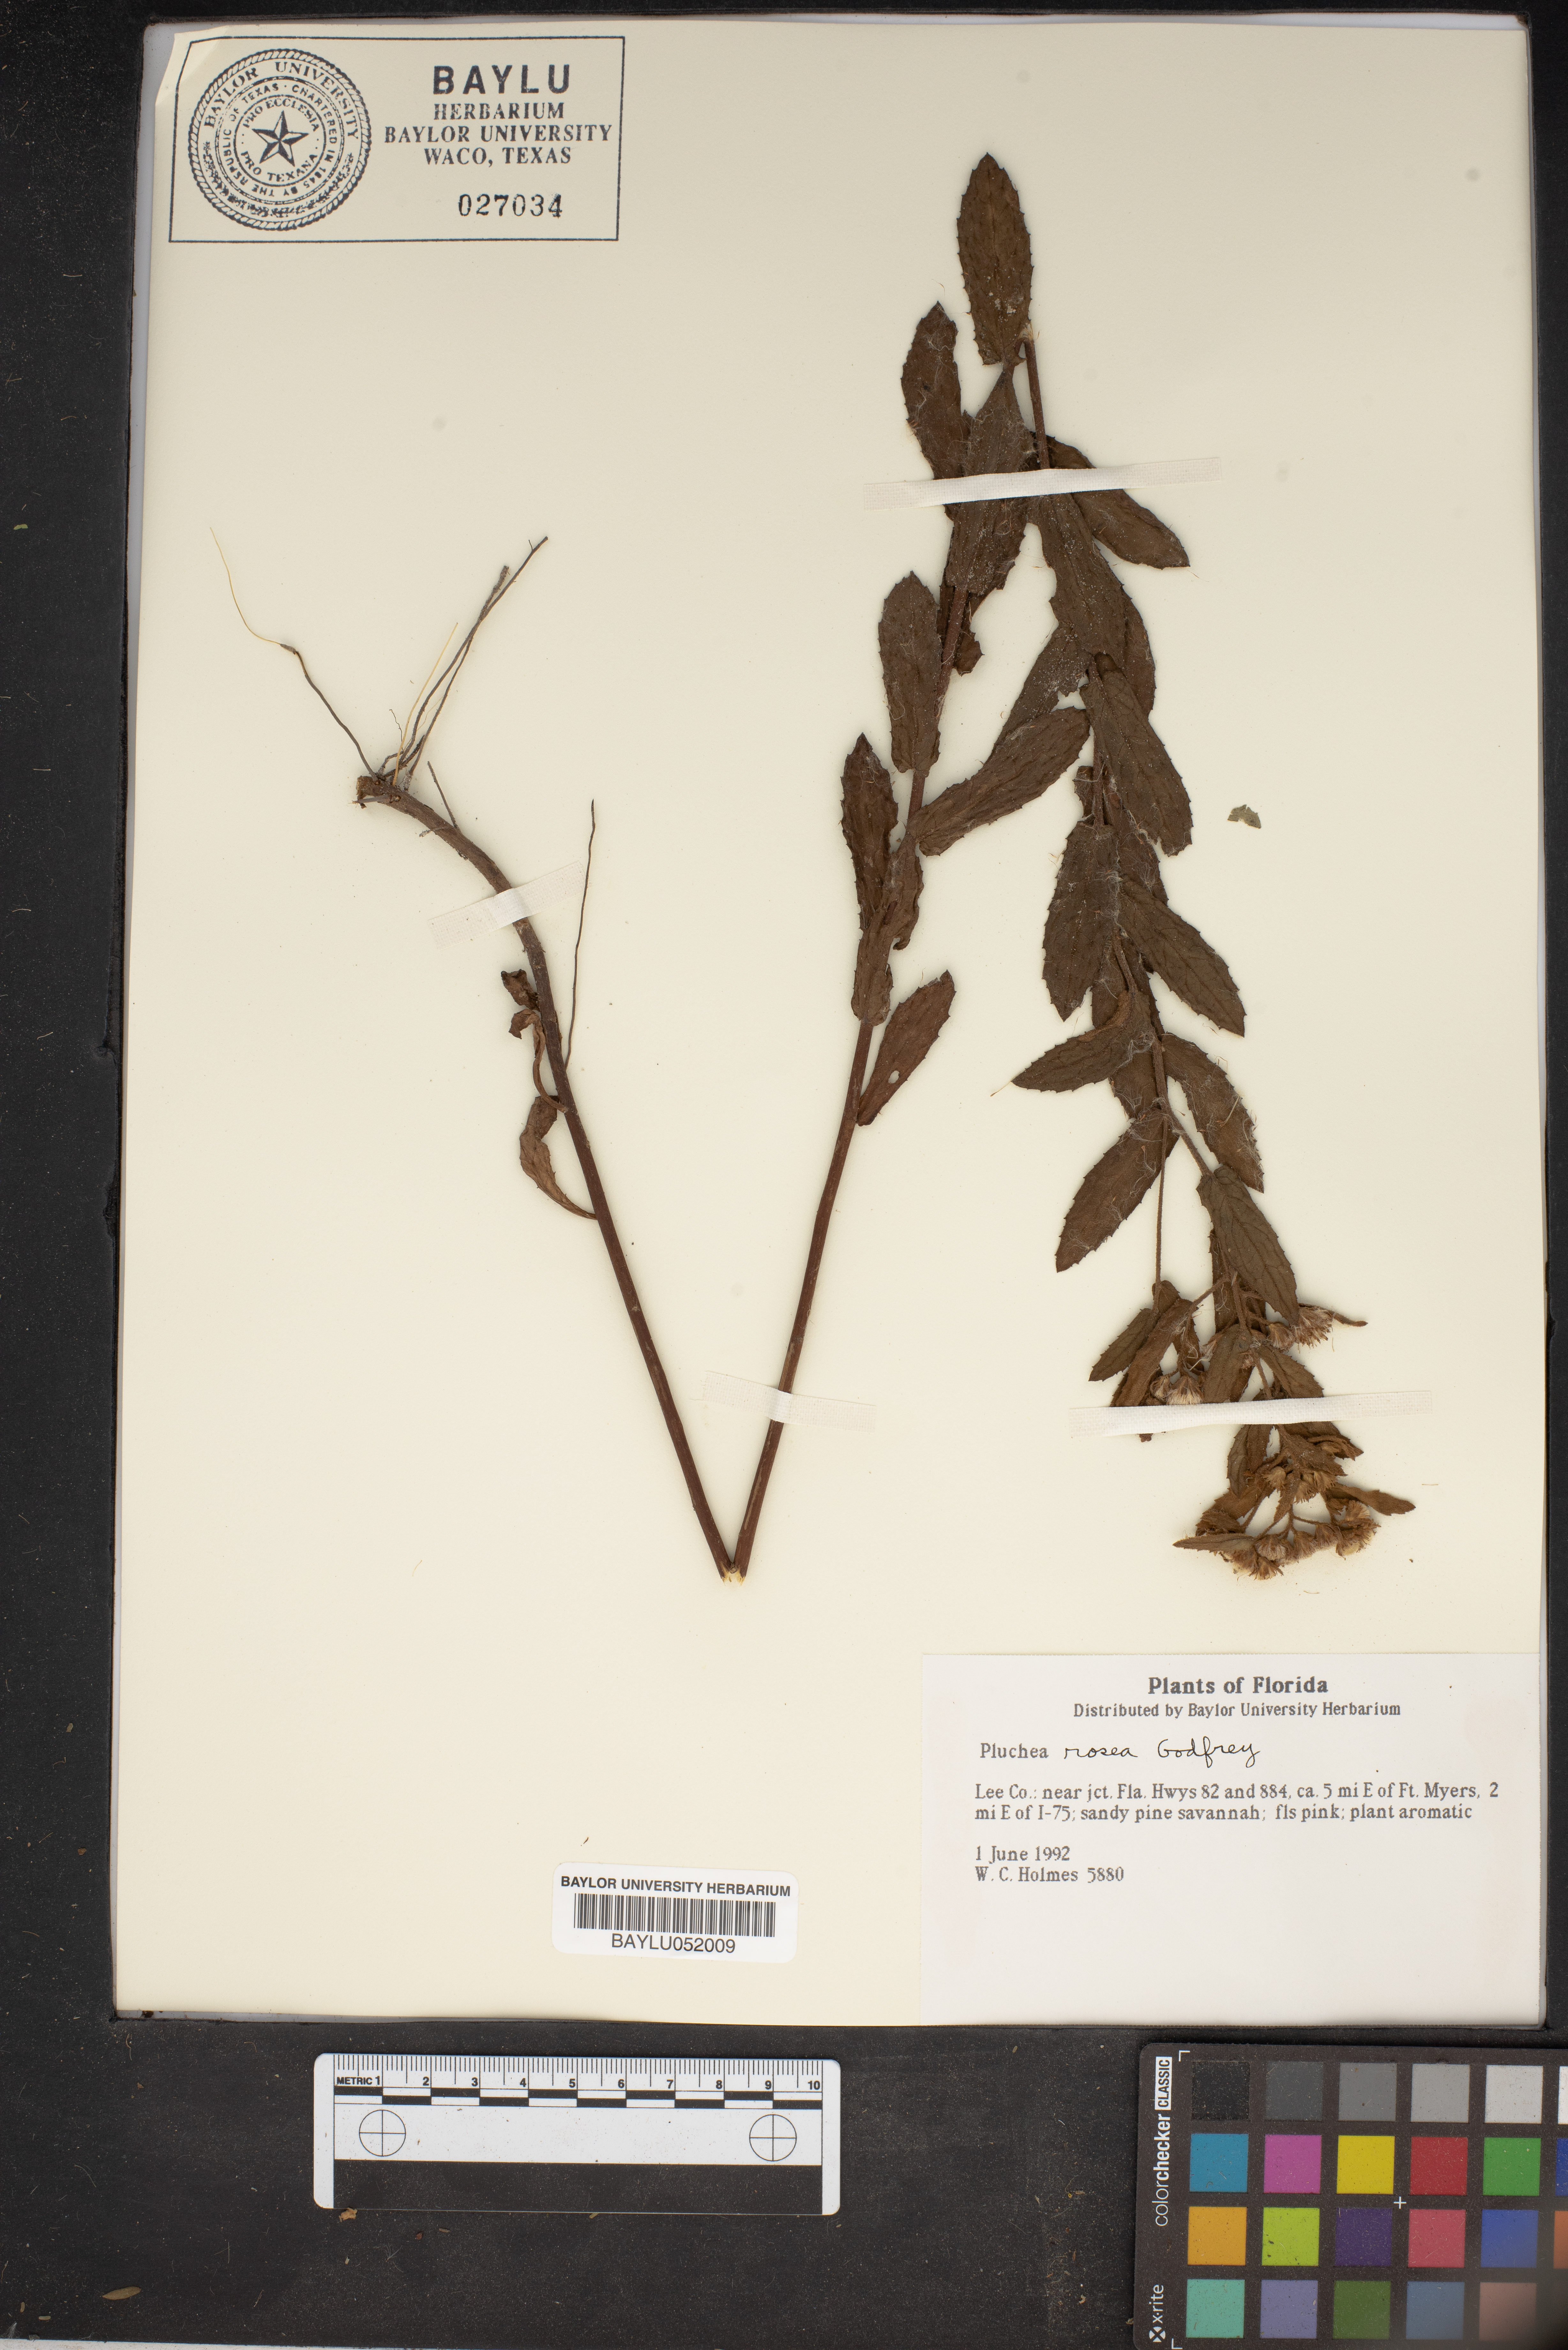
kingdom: Plantae
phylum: Tracheophyta
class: Magnoliopsida
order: Asterales
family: Asteraceae
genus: Pluchea
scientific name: Pluchea baccharis
